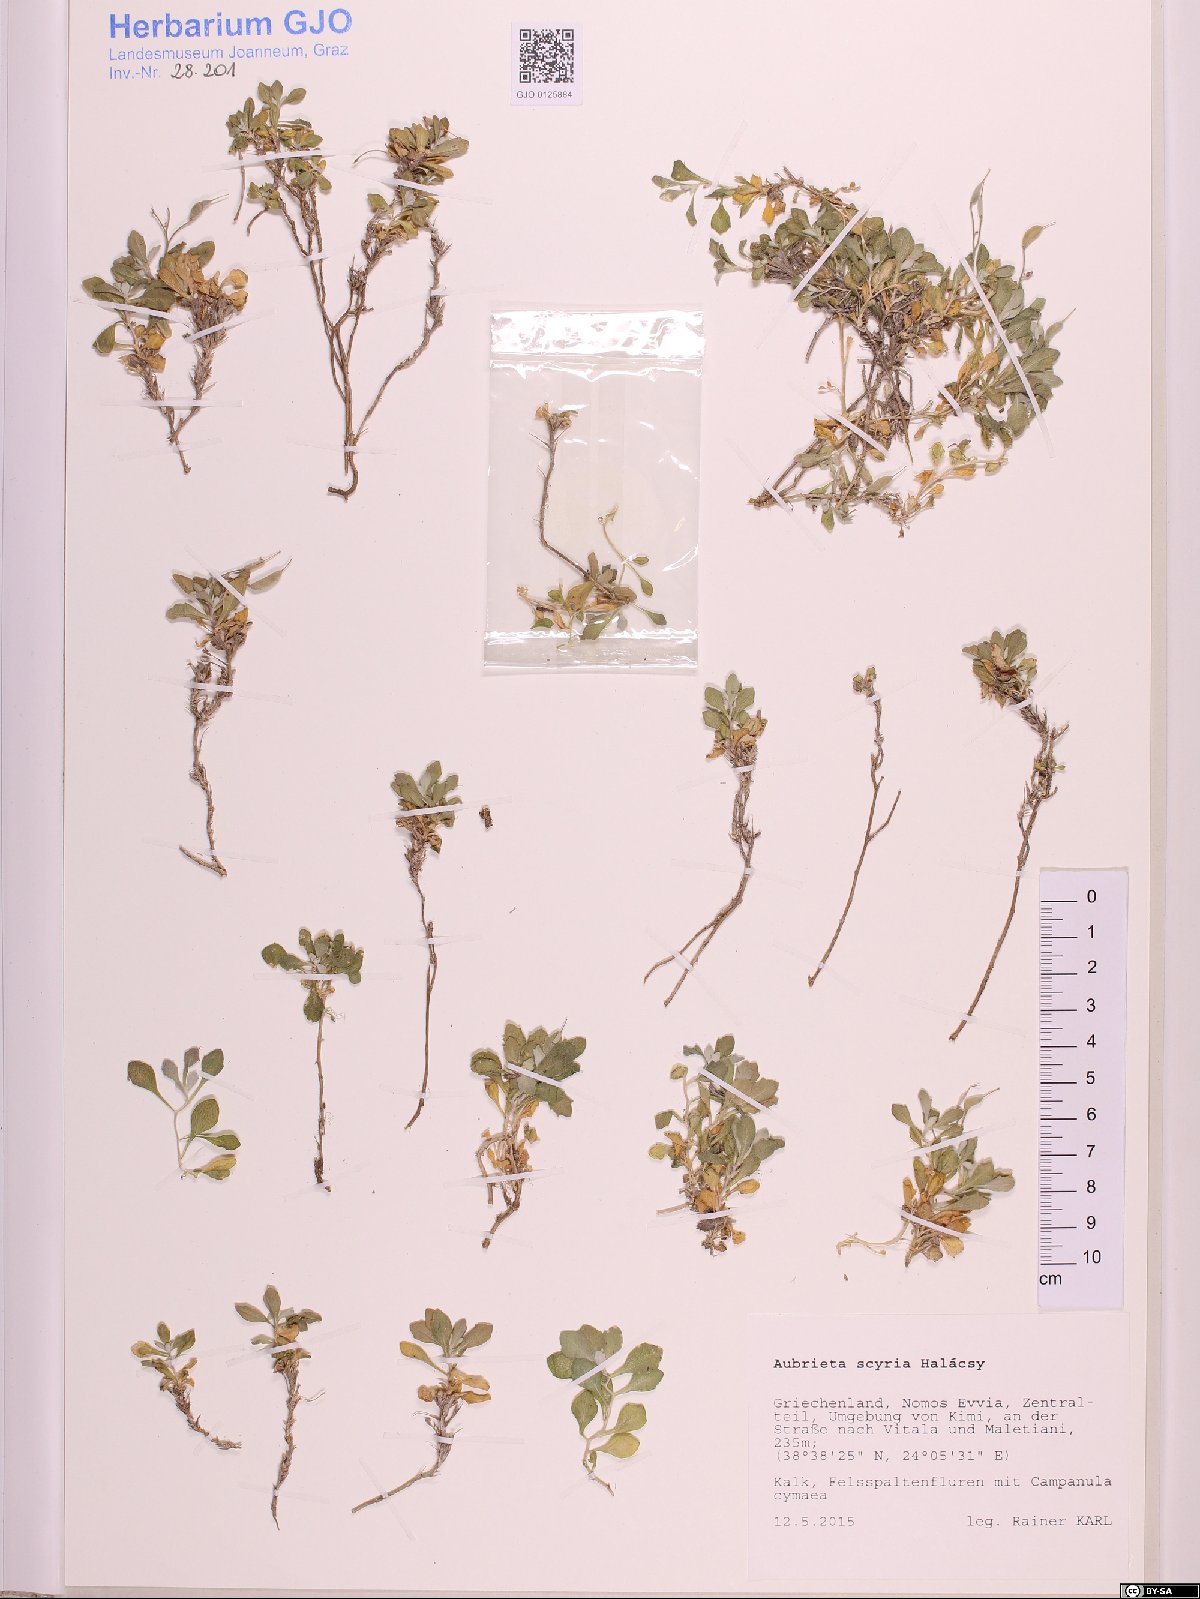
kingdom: Plantae
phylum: Tracheophyta
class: Magnoliopsida
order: Brassicales
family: Brassicaceae
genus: Aubrieta
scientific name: Aubrieta scyria
